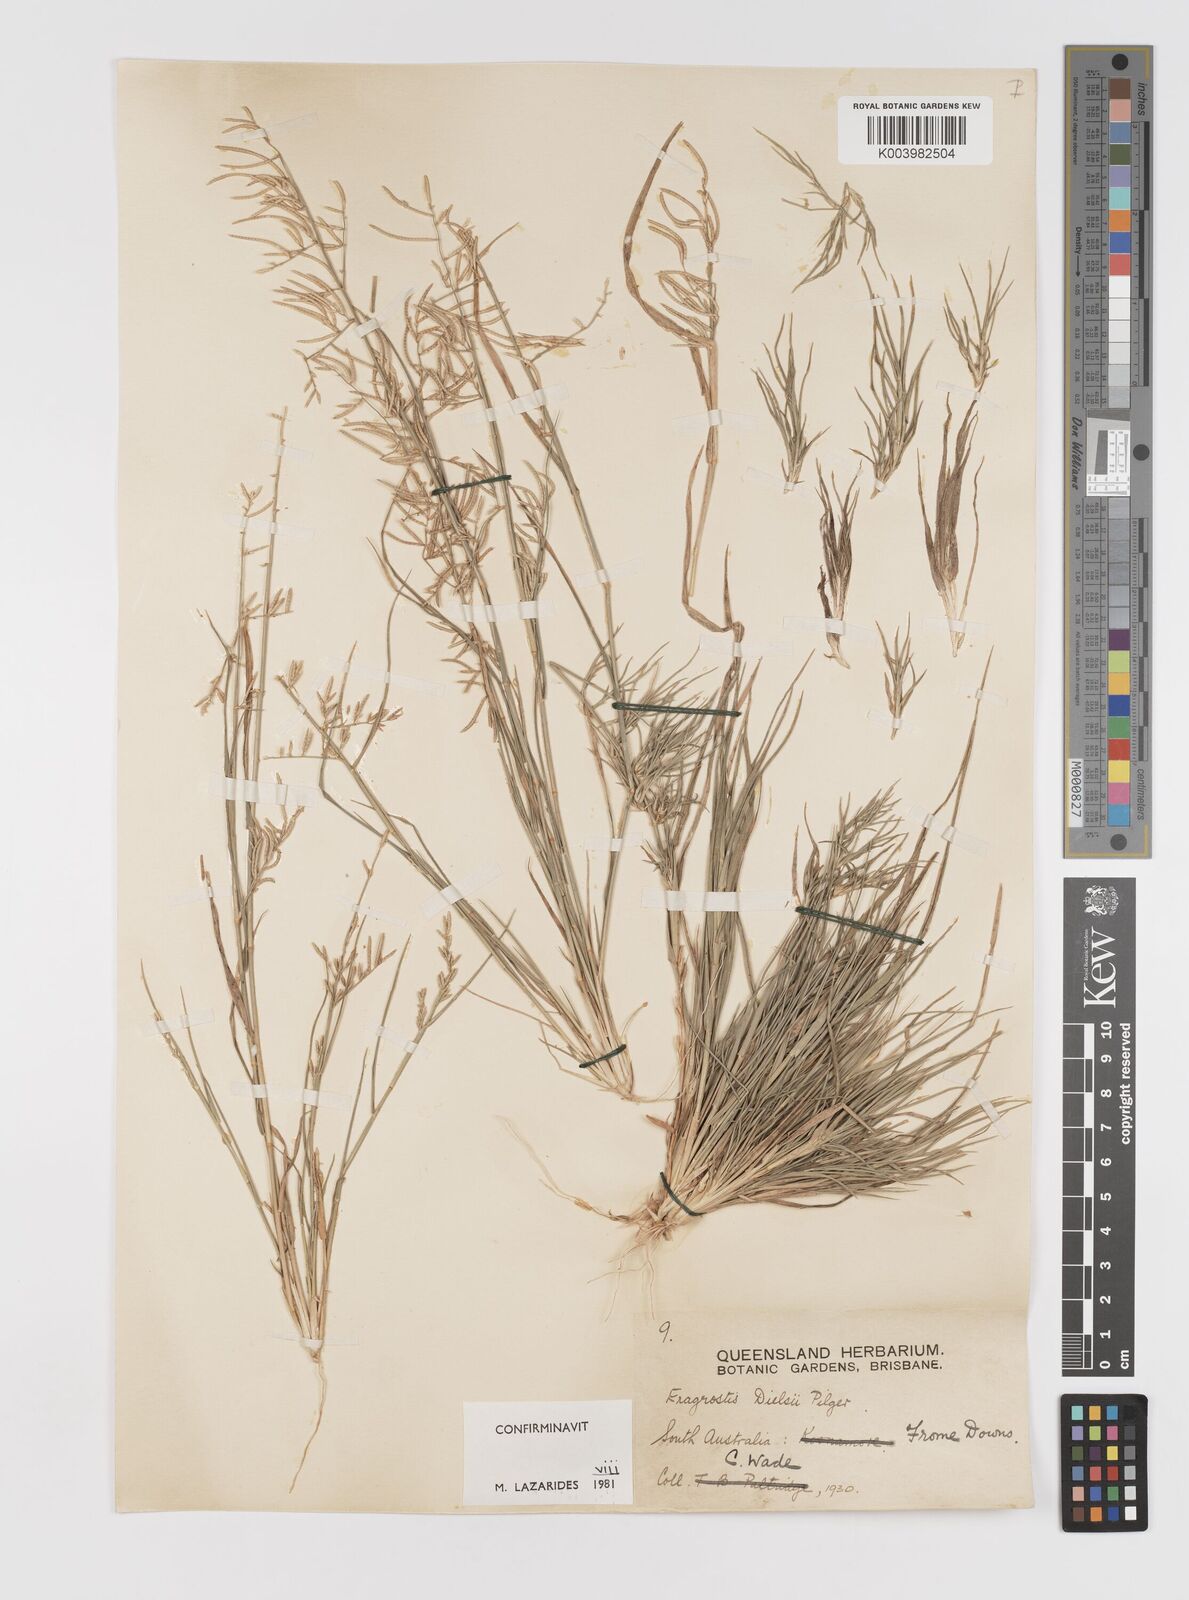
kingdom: Plantae
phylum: Tracheophyta
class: Liliopsida
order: Poales
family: Poaceae
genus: Eragrostis
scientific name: Eragrostis dielsii
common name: Lovegrass
